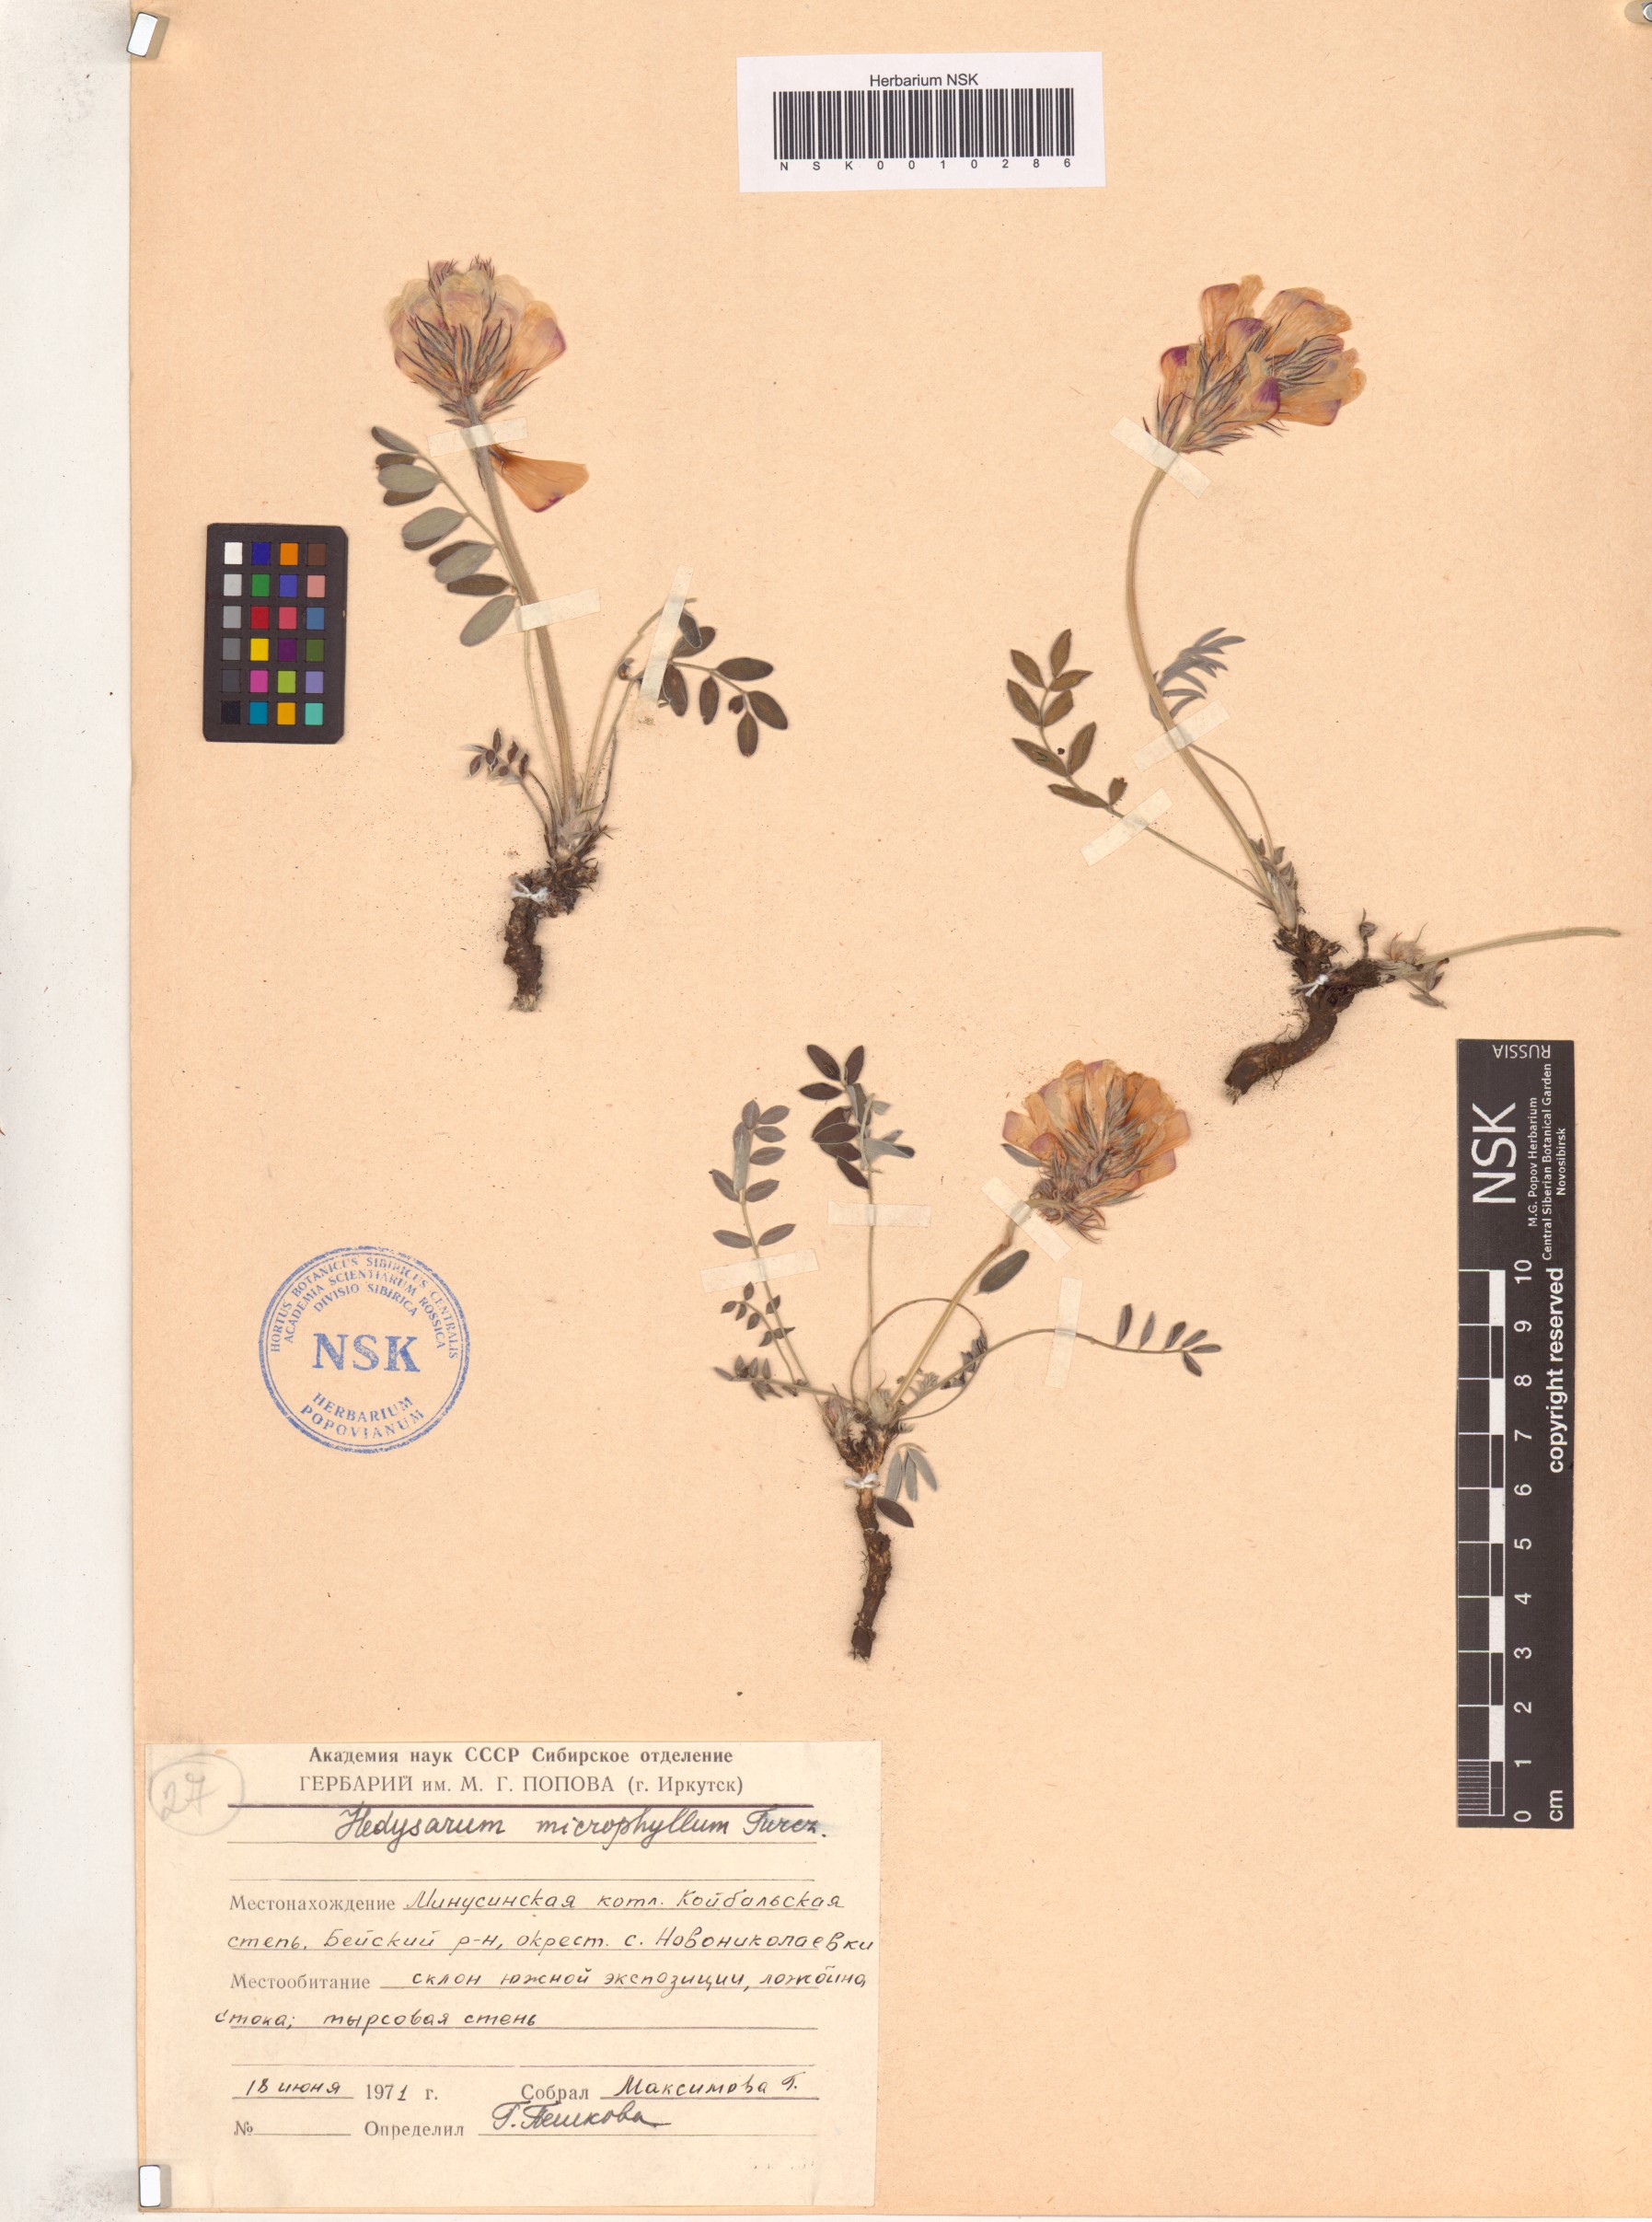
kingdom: Plantae
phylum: Tracheophyta
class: Magnoliopsida
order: Fabales
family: Fabaceae
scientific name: Fabaceae
